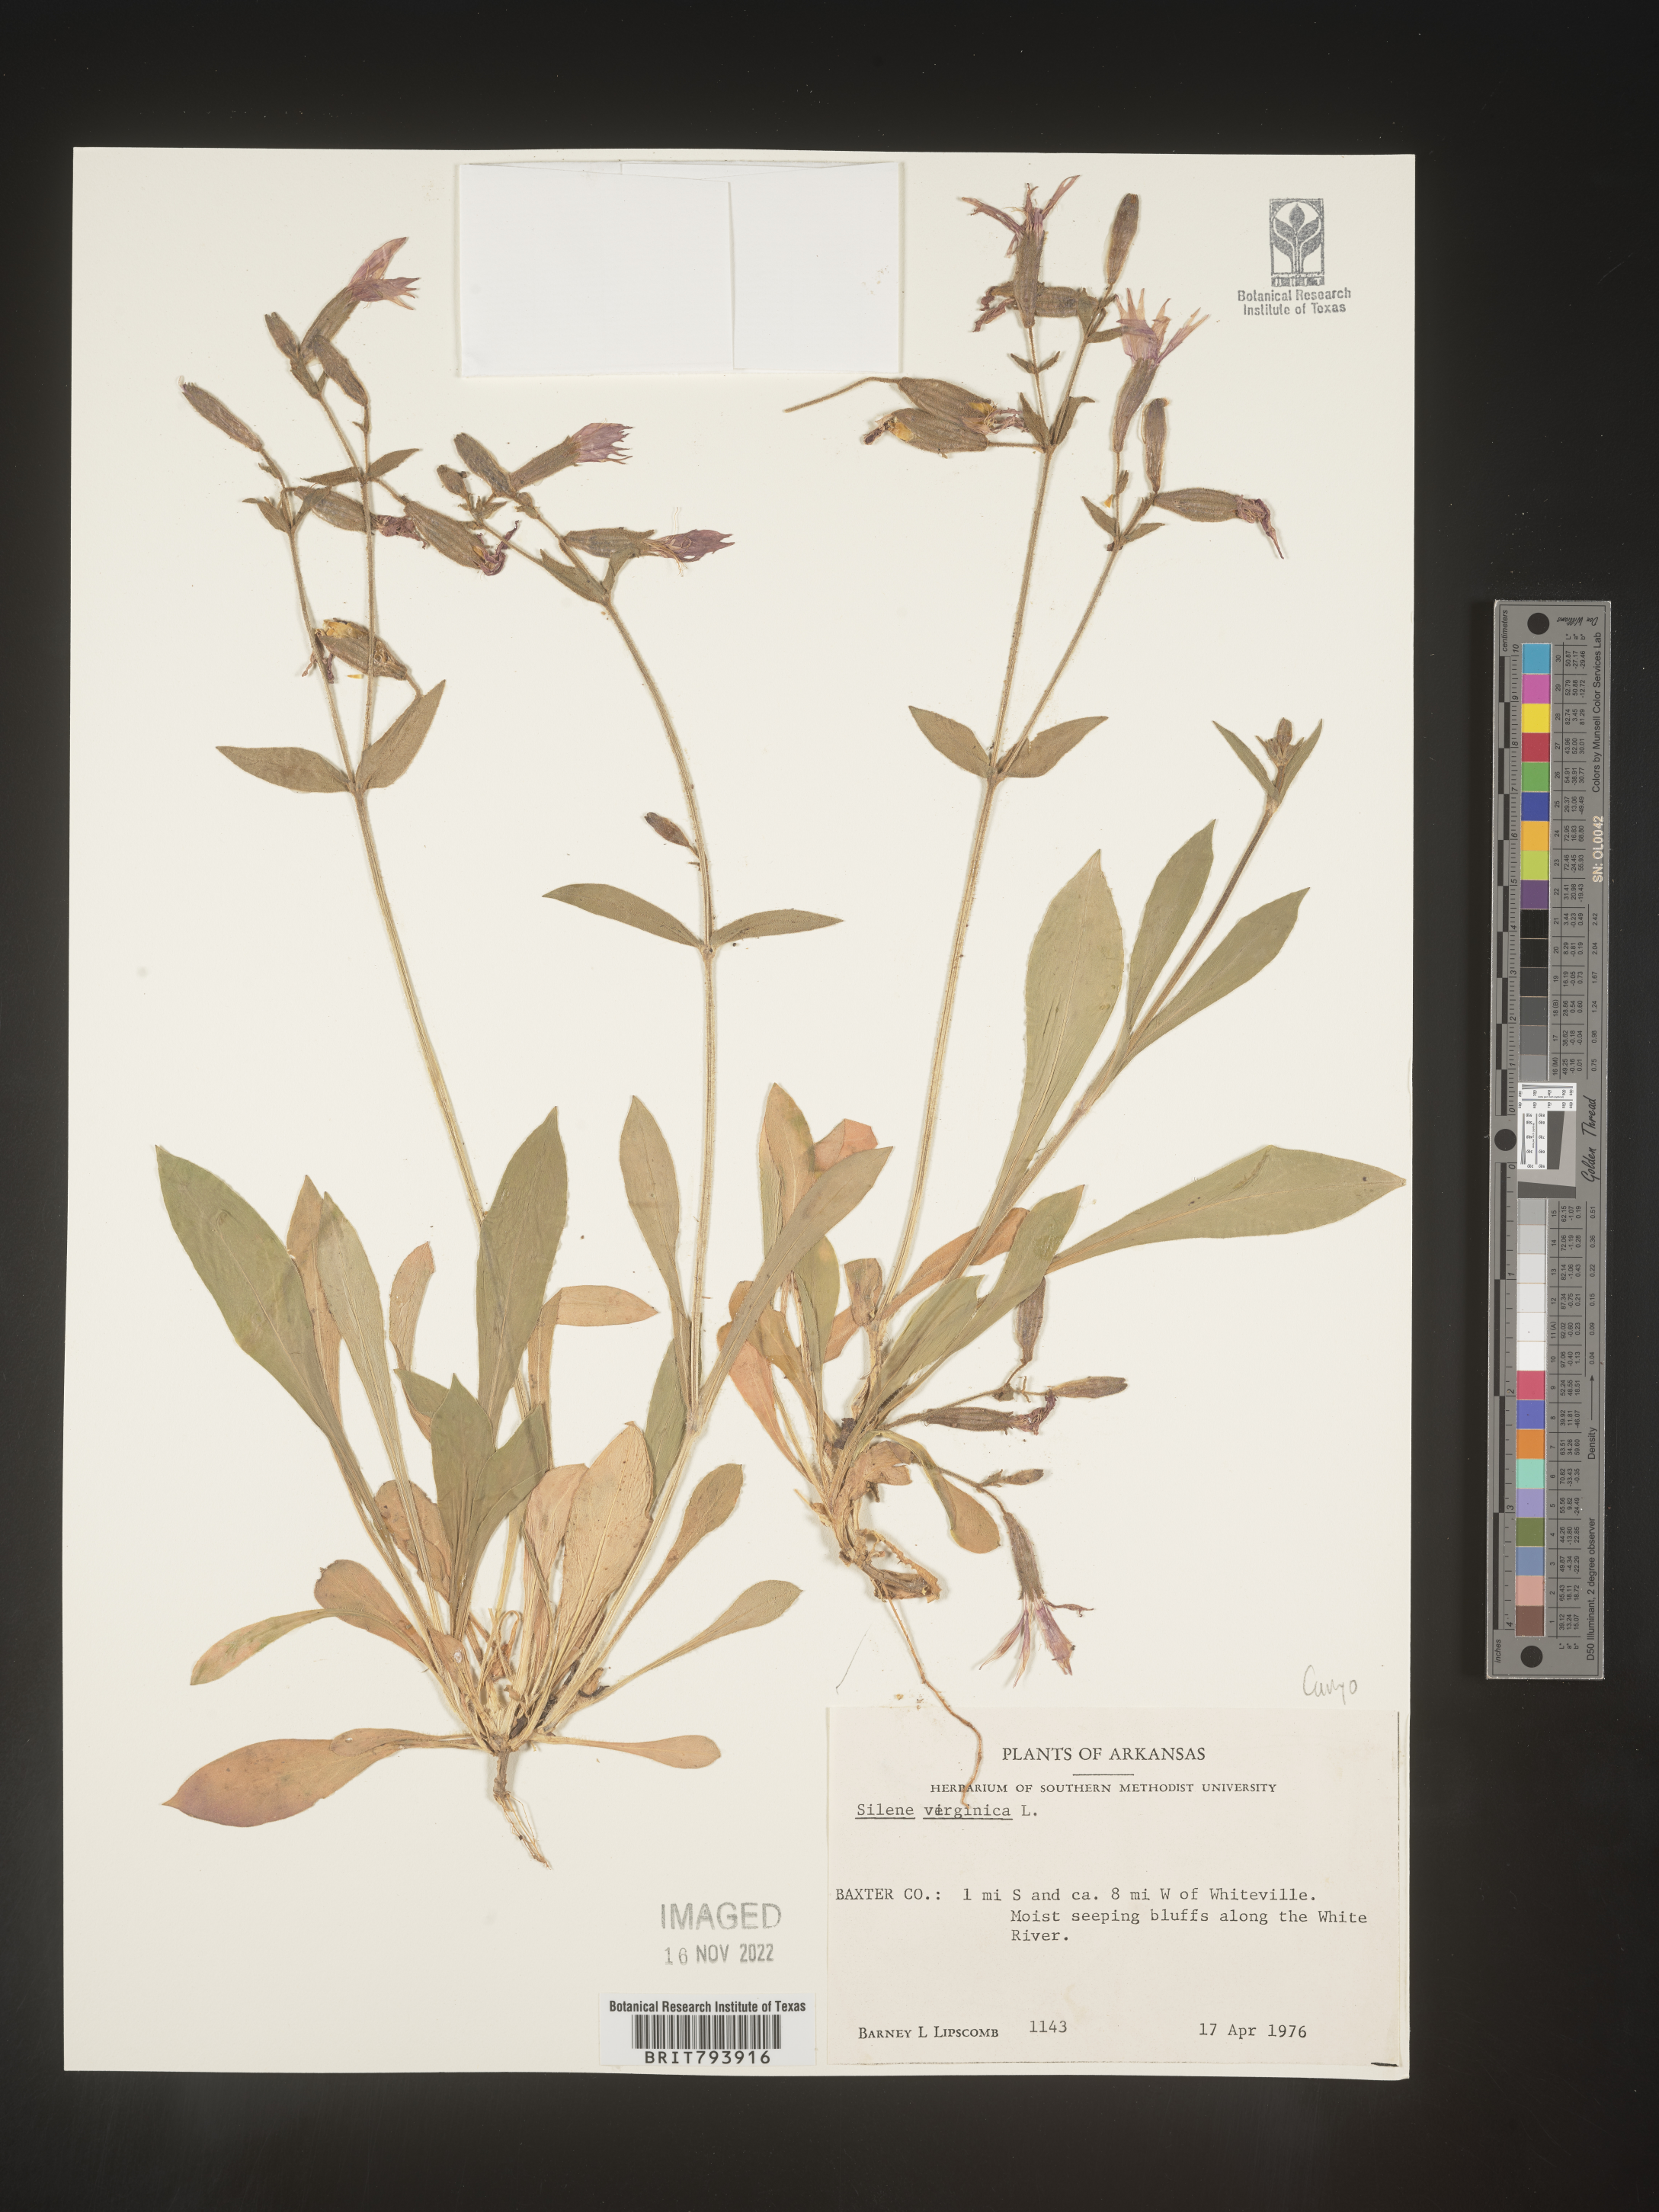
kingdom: Plantae
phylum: Tracheophyta
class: Magnoliopsida
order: Caryophyllales
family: Caryophyllaceae
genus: Silene
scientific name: Silene virginica
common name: Fire-pink
